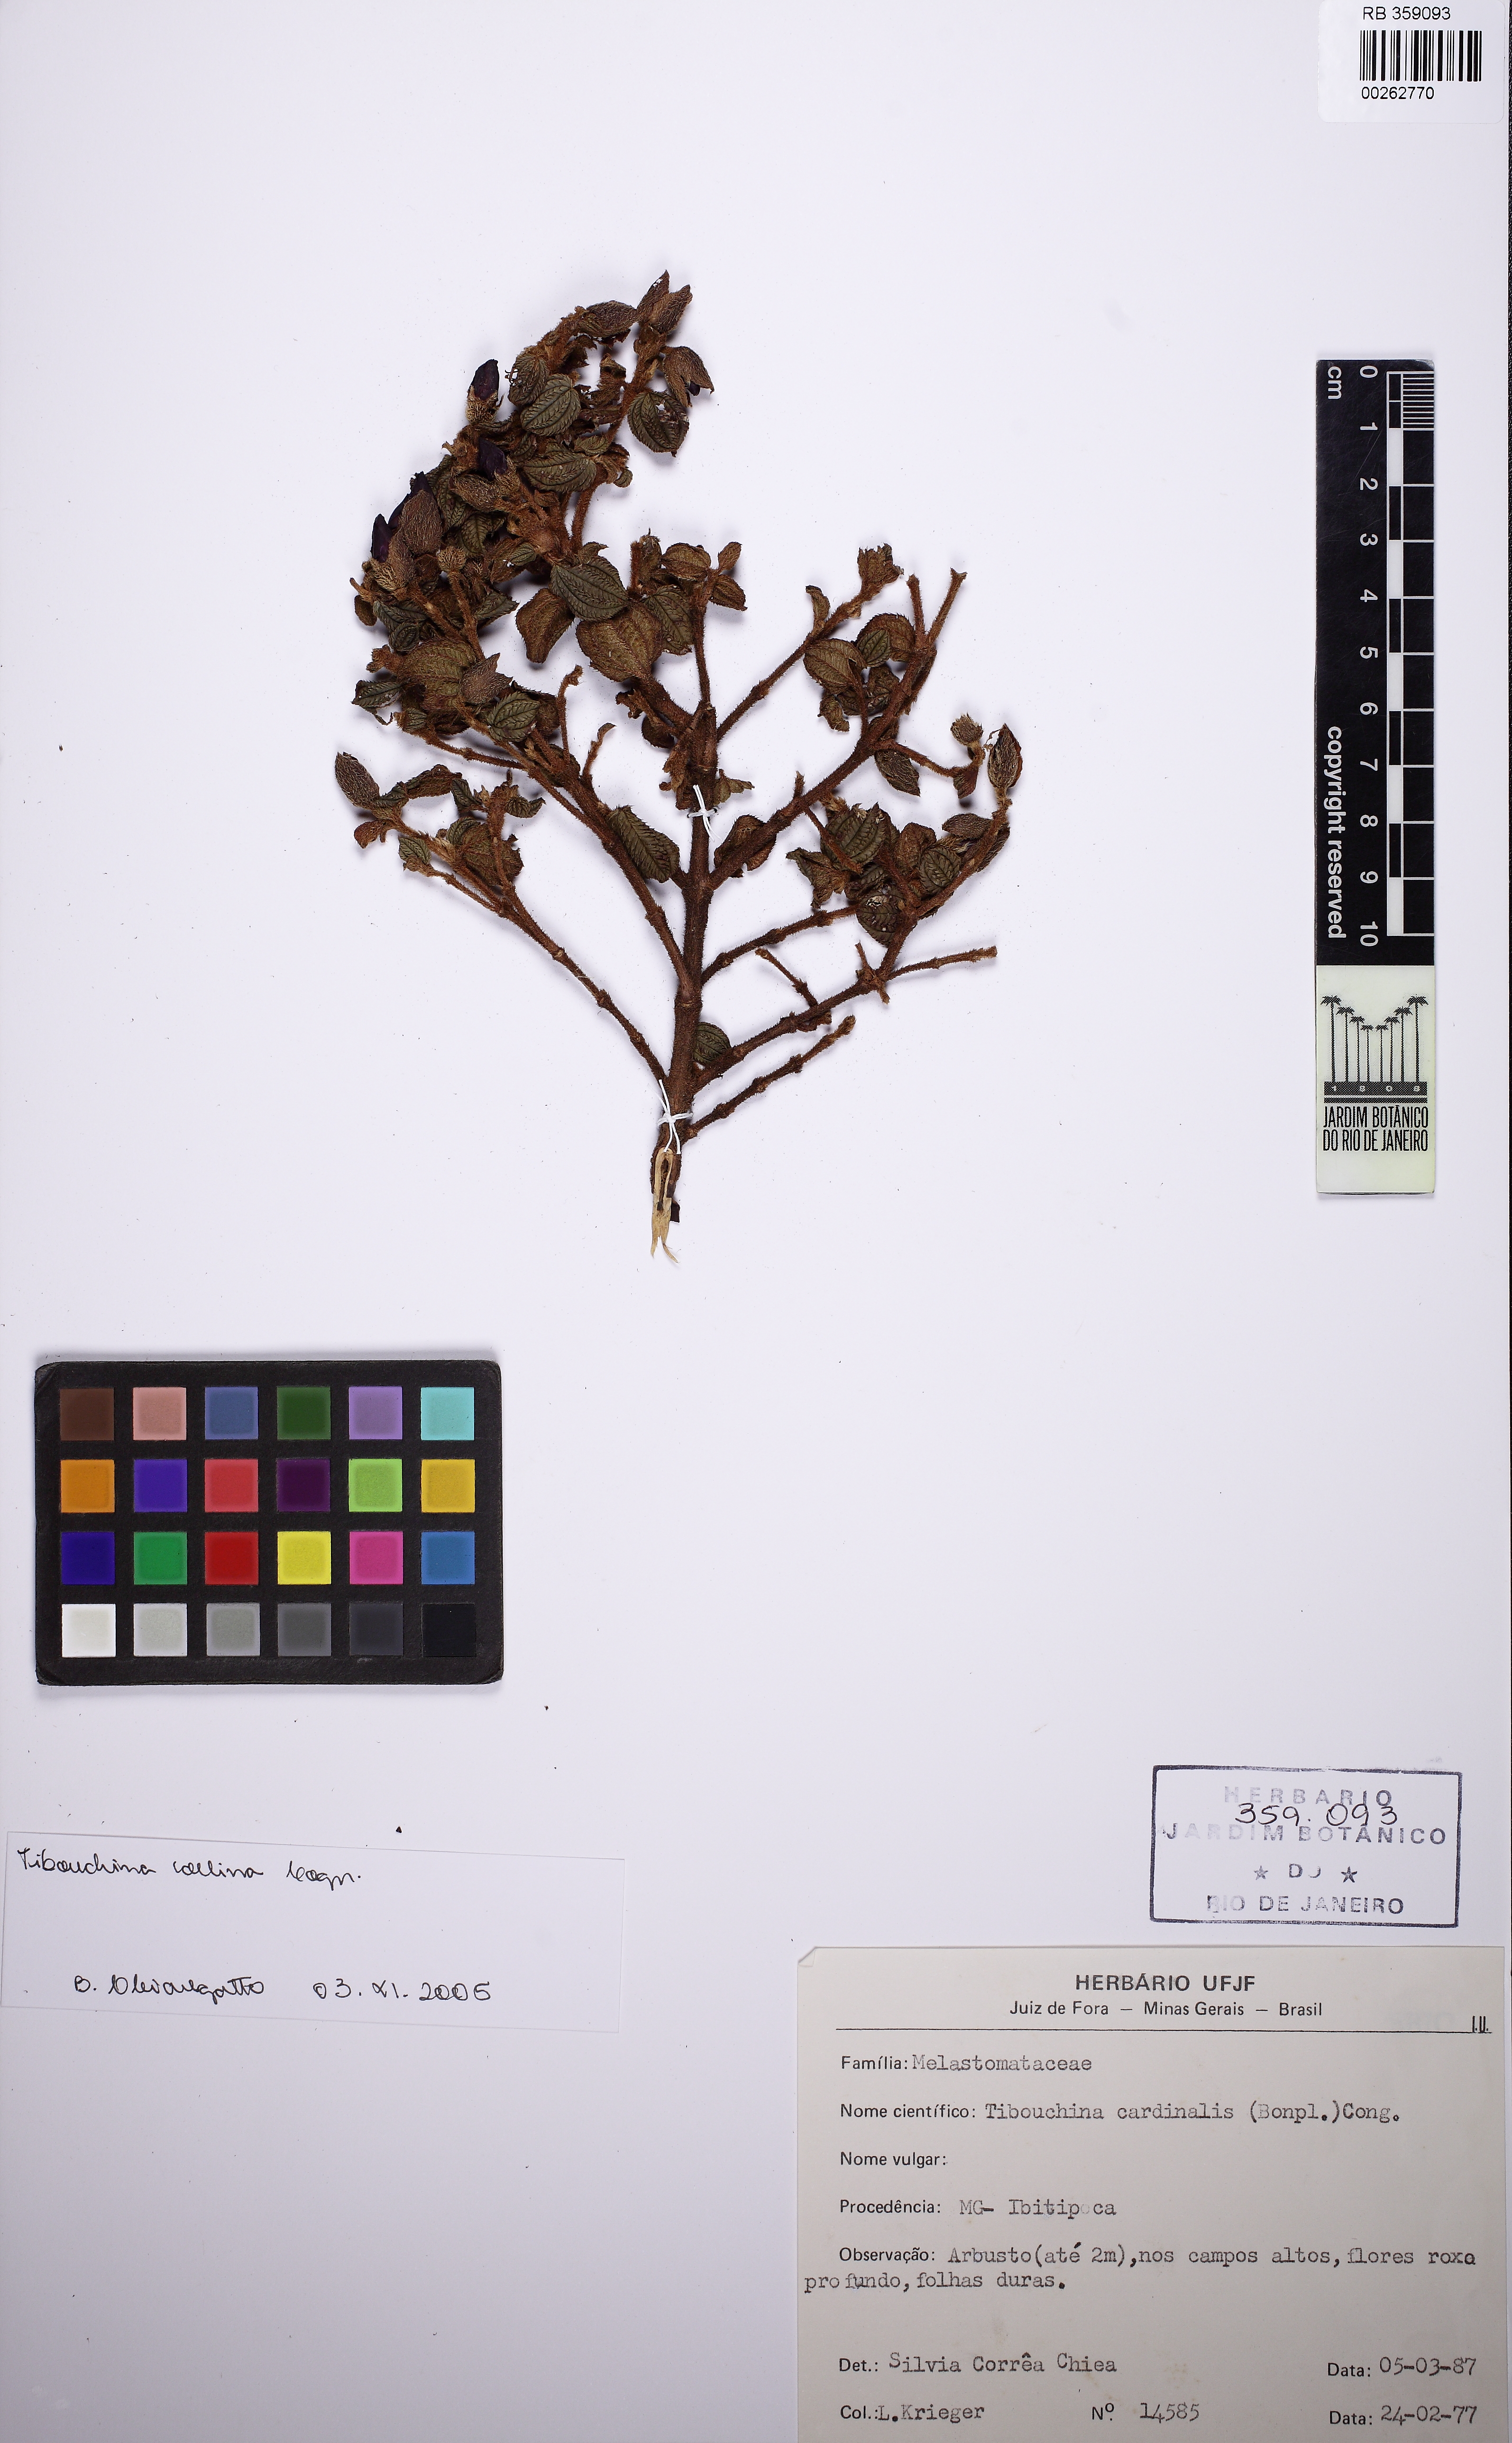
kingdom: Plantae
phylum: Tracheophyta
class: Magnoliopsida
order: Myrtales
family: Melastomataceae
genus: Pleroma
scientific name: Pleroma collinum
